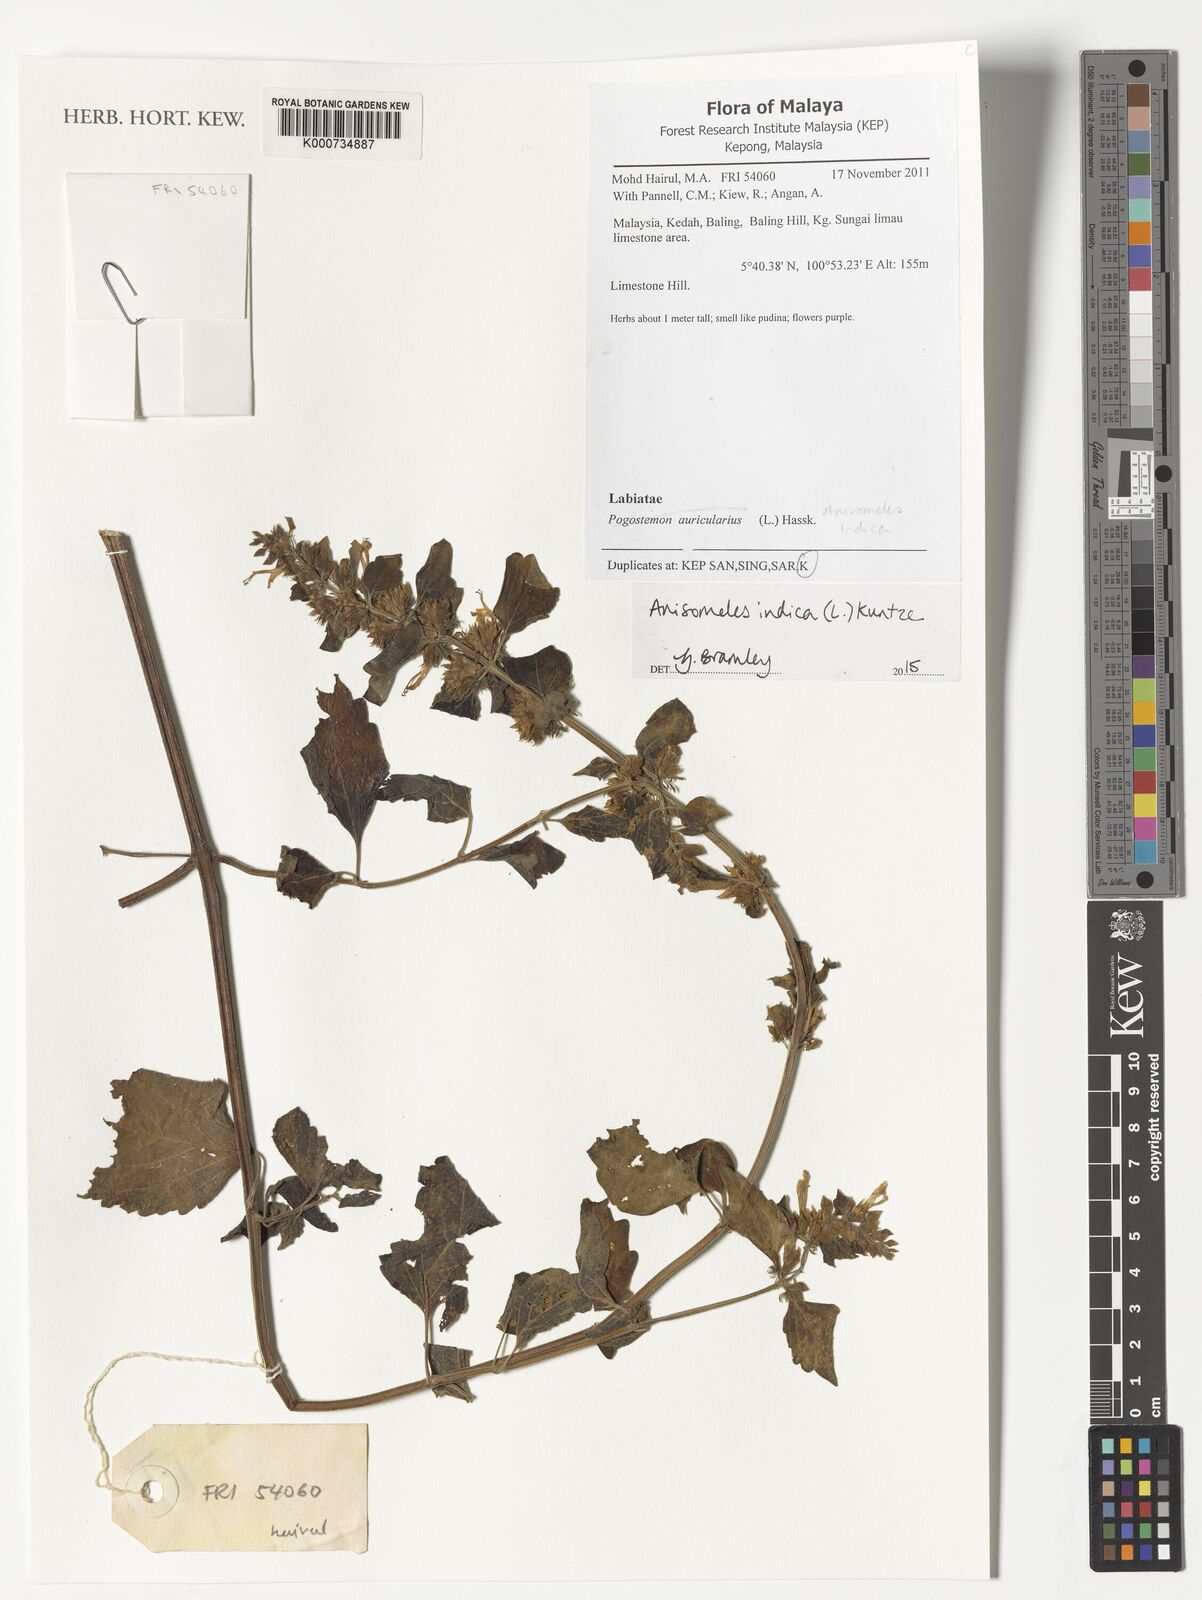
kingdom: Plantae
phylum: Tracheophyta
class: Magnoliopsida
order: Lamiales
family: Lamiaceae
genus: Anisomeles
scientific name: Anisomeles indica
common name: Catmint
